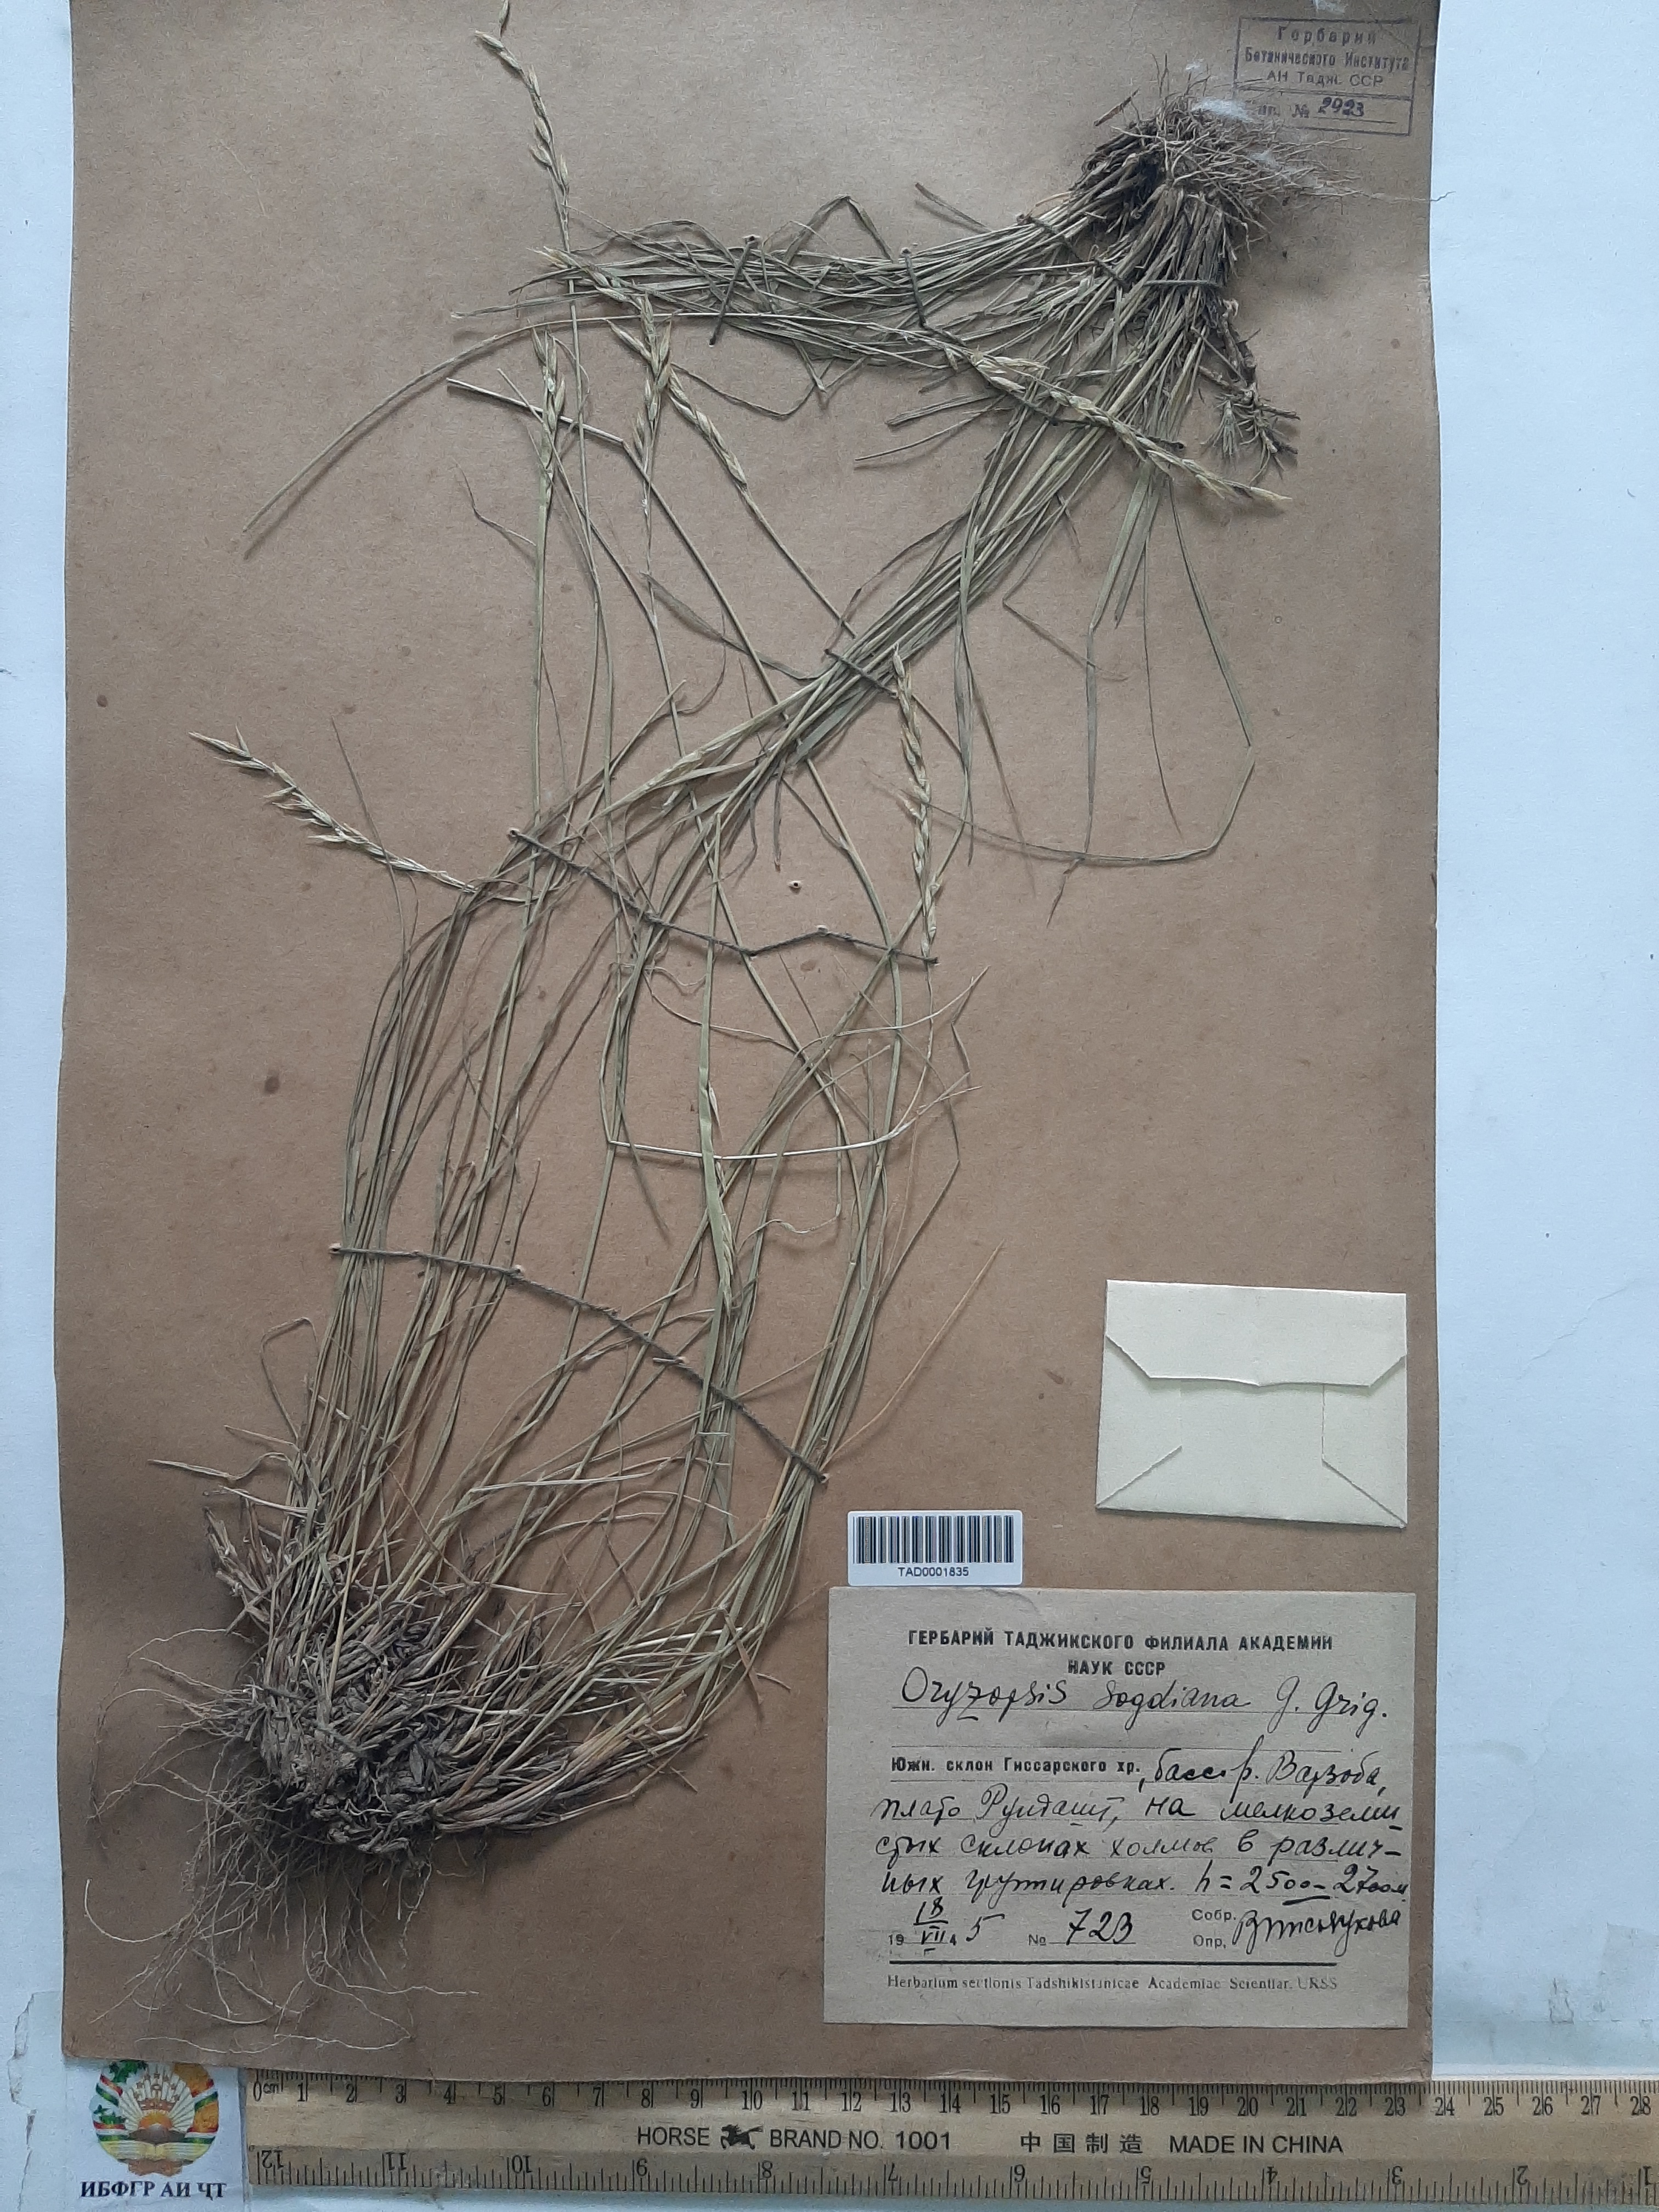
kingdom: Plantae
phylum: Tracheophyta
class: Liliopsida
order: Poales
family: Poaceae
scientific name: Poaceae
